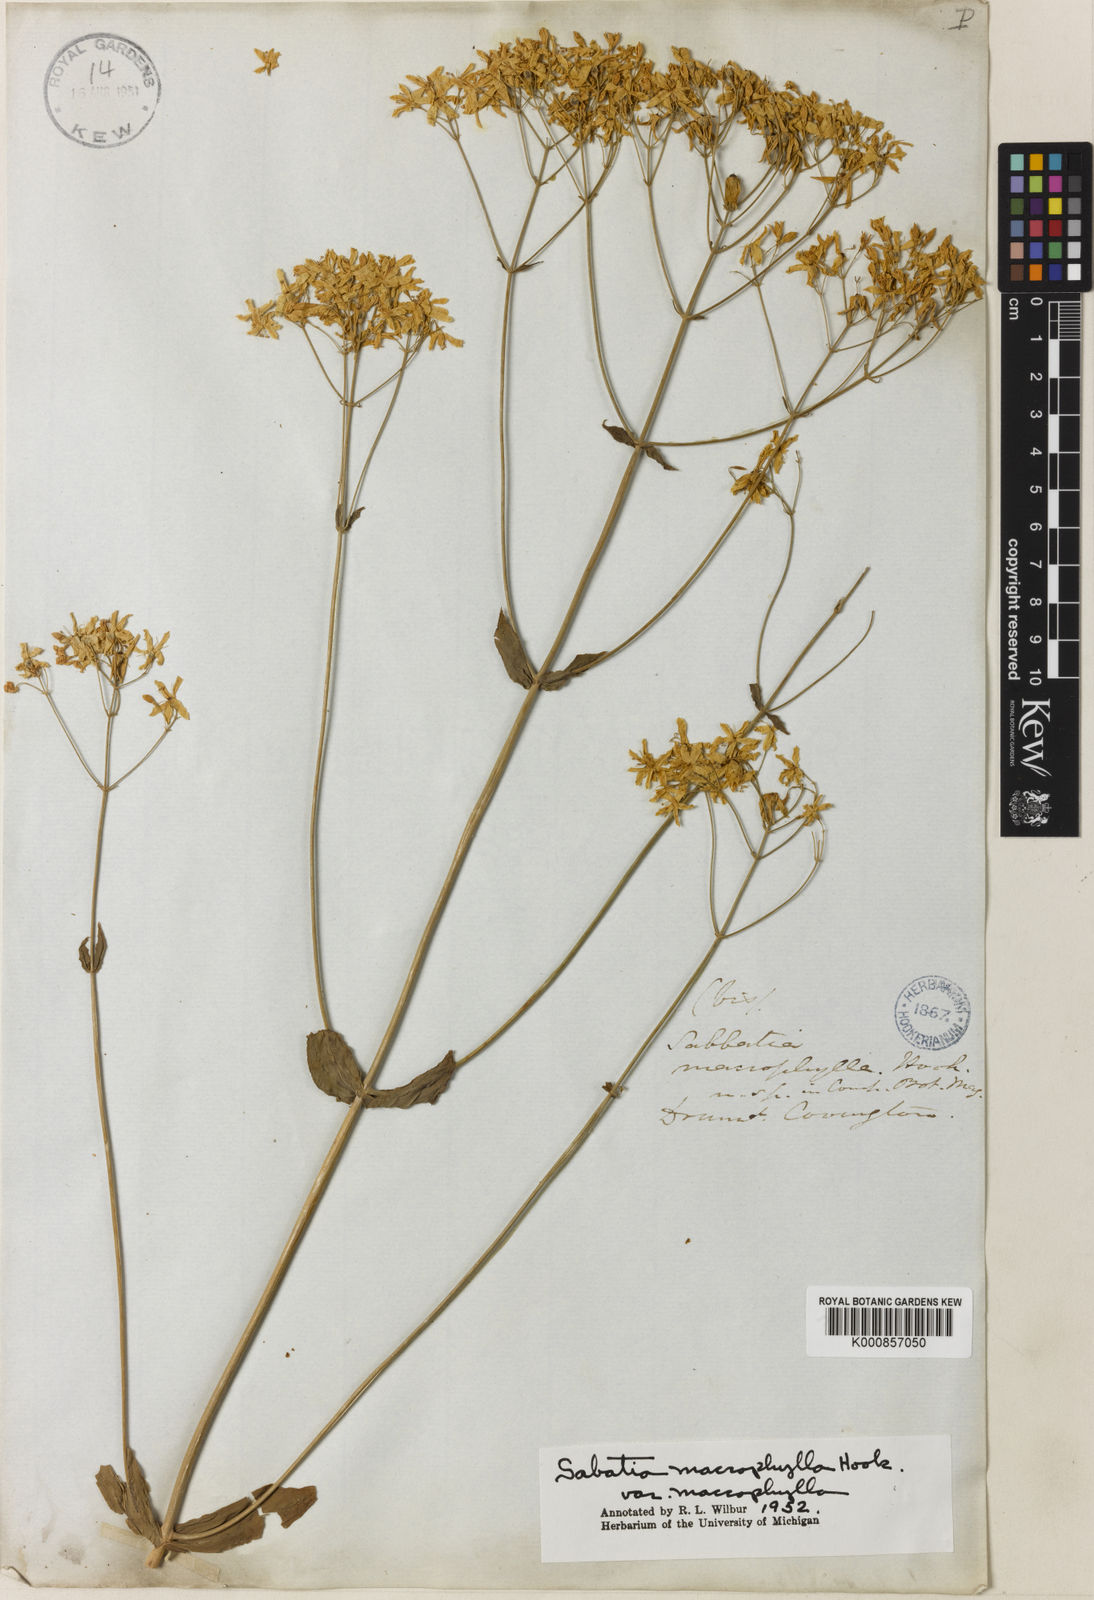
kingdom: Plantae
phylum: Tracheophyta
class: Magnoliopsida
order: Gentianales
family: Gentianaceae
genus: Sabatia
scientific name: Sabatia macrophylla
